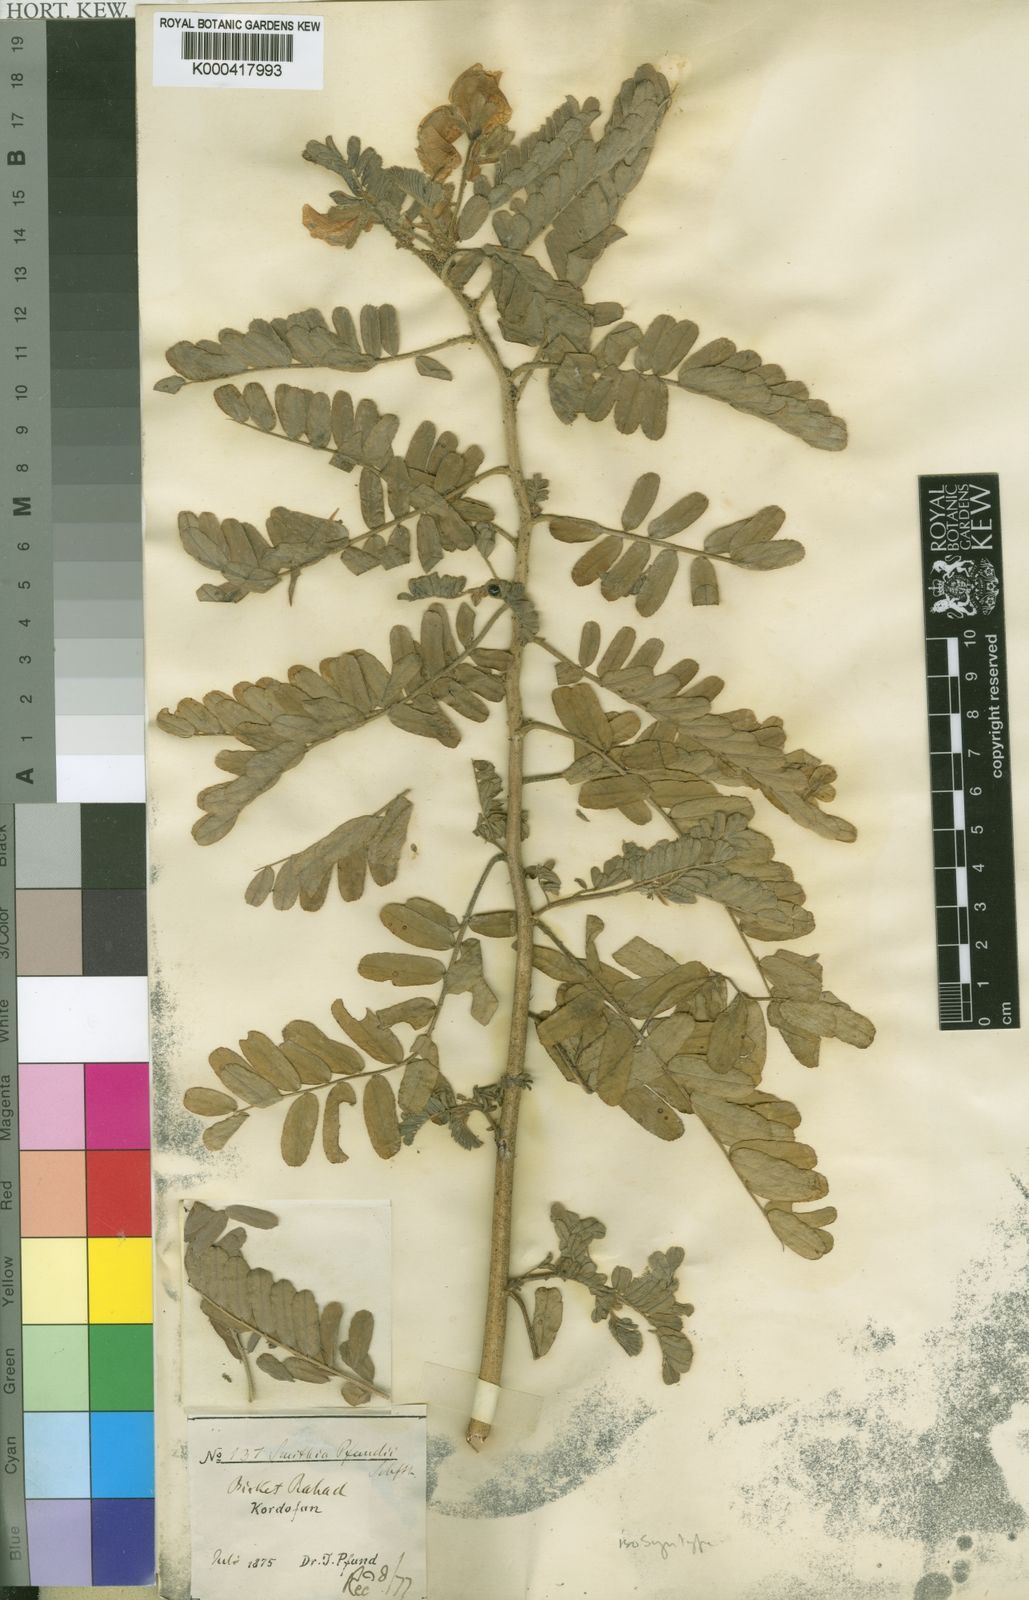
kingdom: Plantae
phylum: Tracheophyta
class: Magnoliopsida
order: Fabales
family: Fabaceae
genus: Aeschynomene
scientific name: Aeschynomene pfundii
